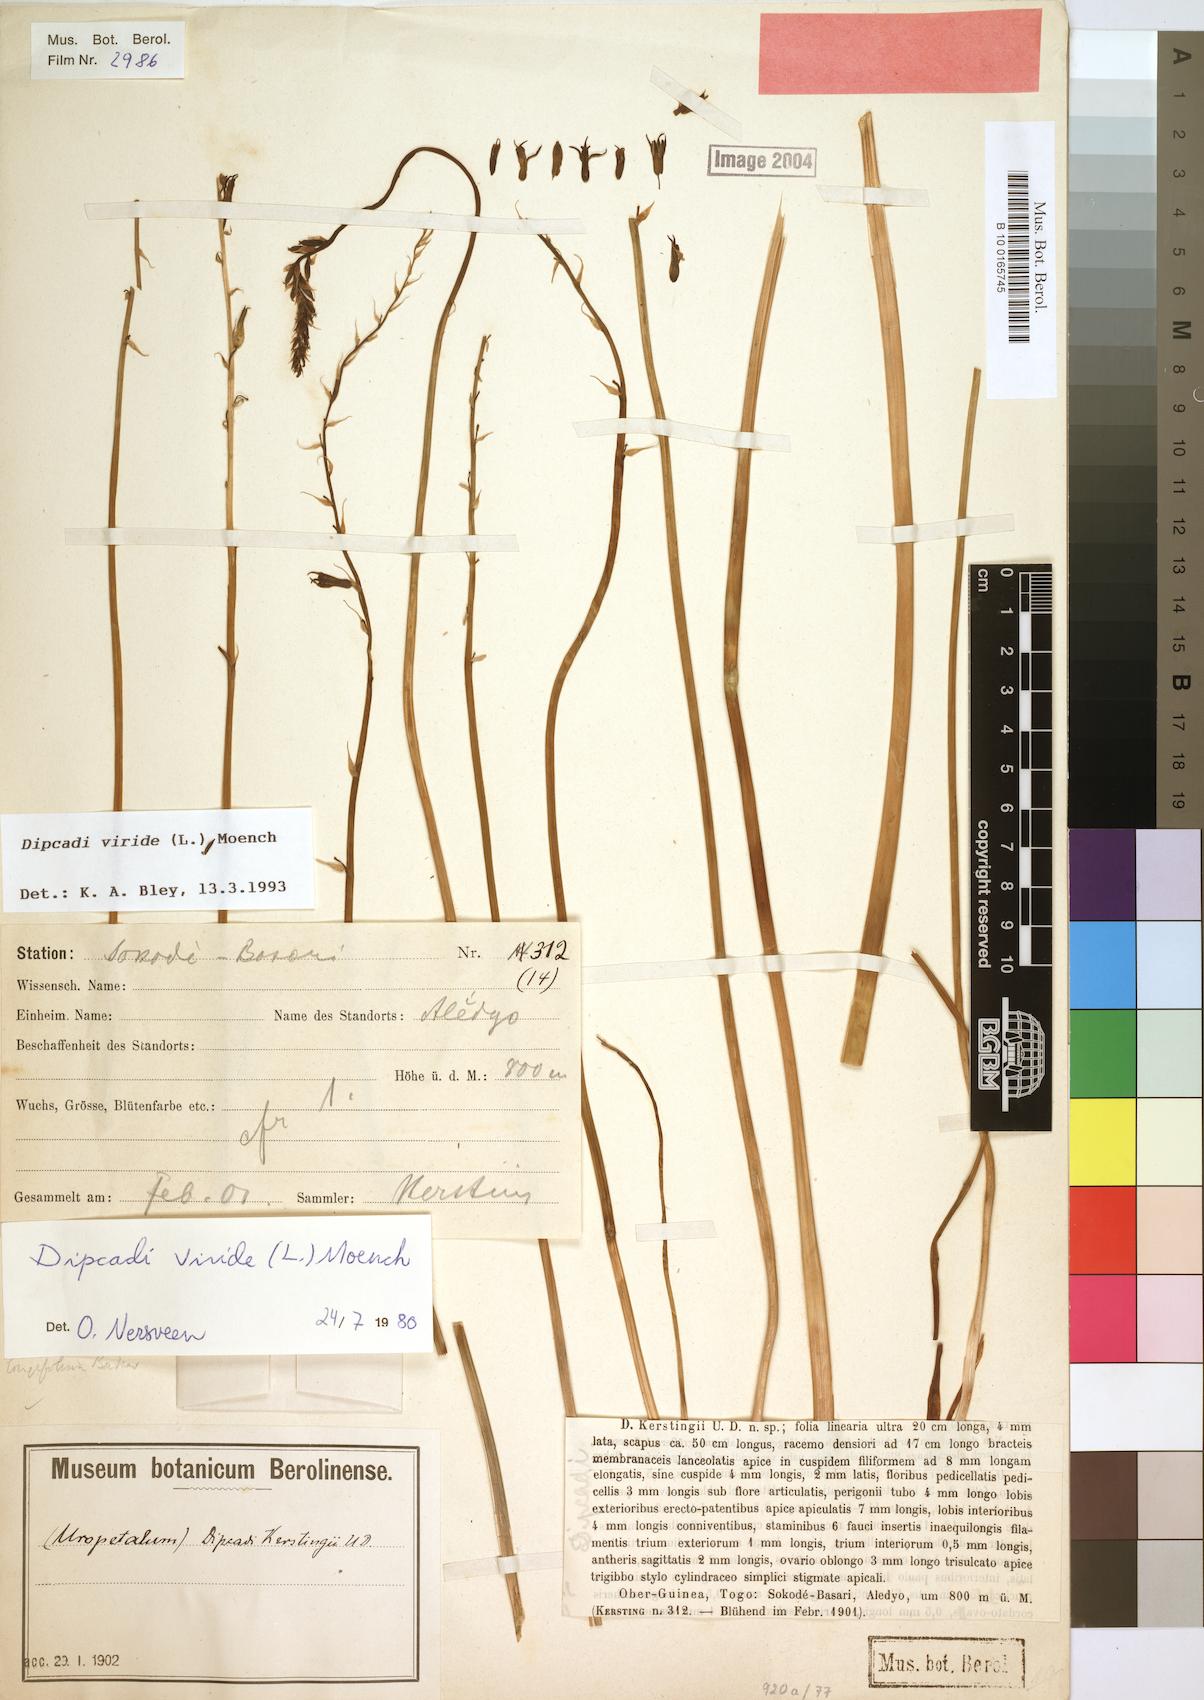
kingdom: Plantae
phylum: Tracheophyta
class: Liliopsida
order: Asparagales
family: Asparagaceae
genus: Dipcadi
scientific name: Dipcadi viride
